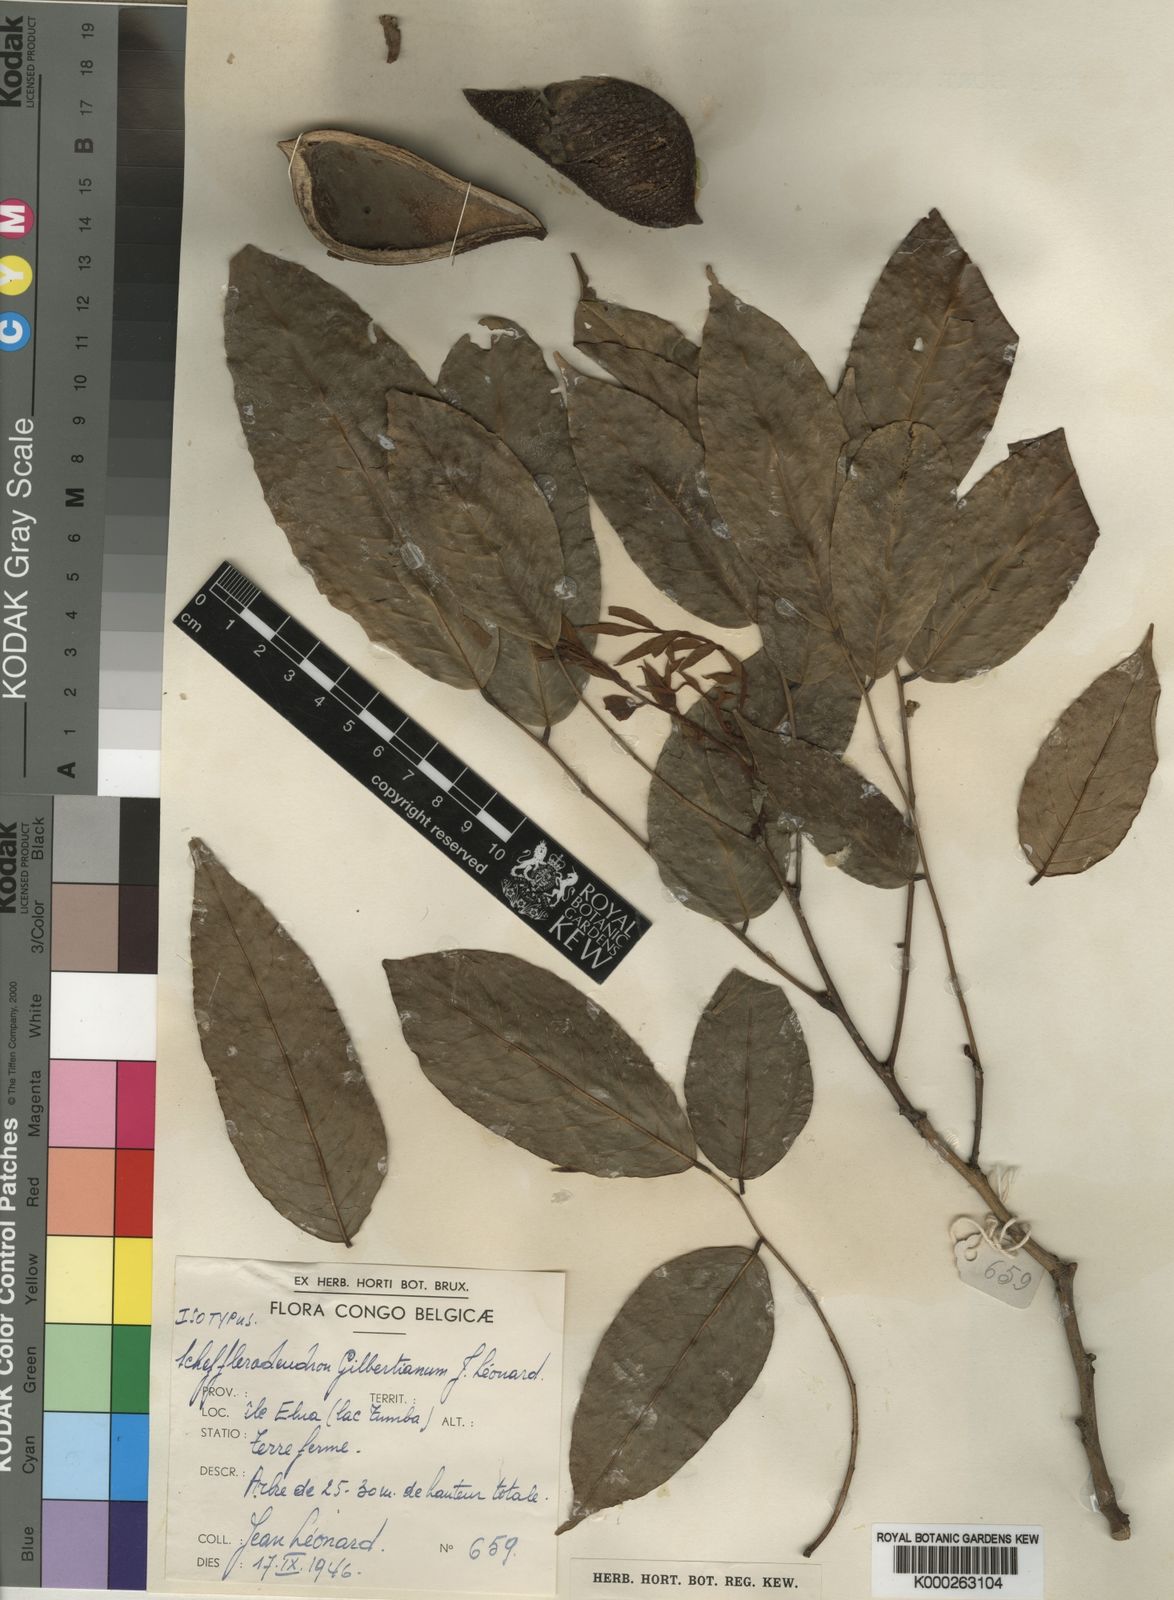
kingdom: Plantae
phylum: Tracheophyta
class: Magnoliopsida
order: Fabales
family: Fabaceae
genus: Schefflerodendron
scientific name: Schefflerodendron
